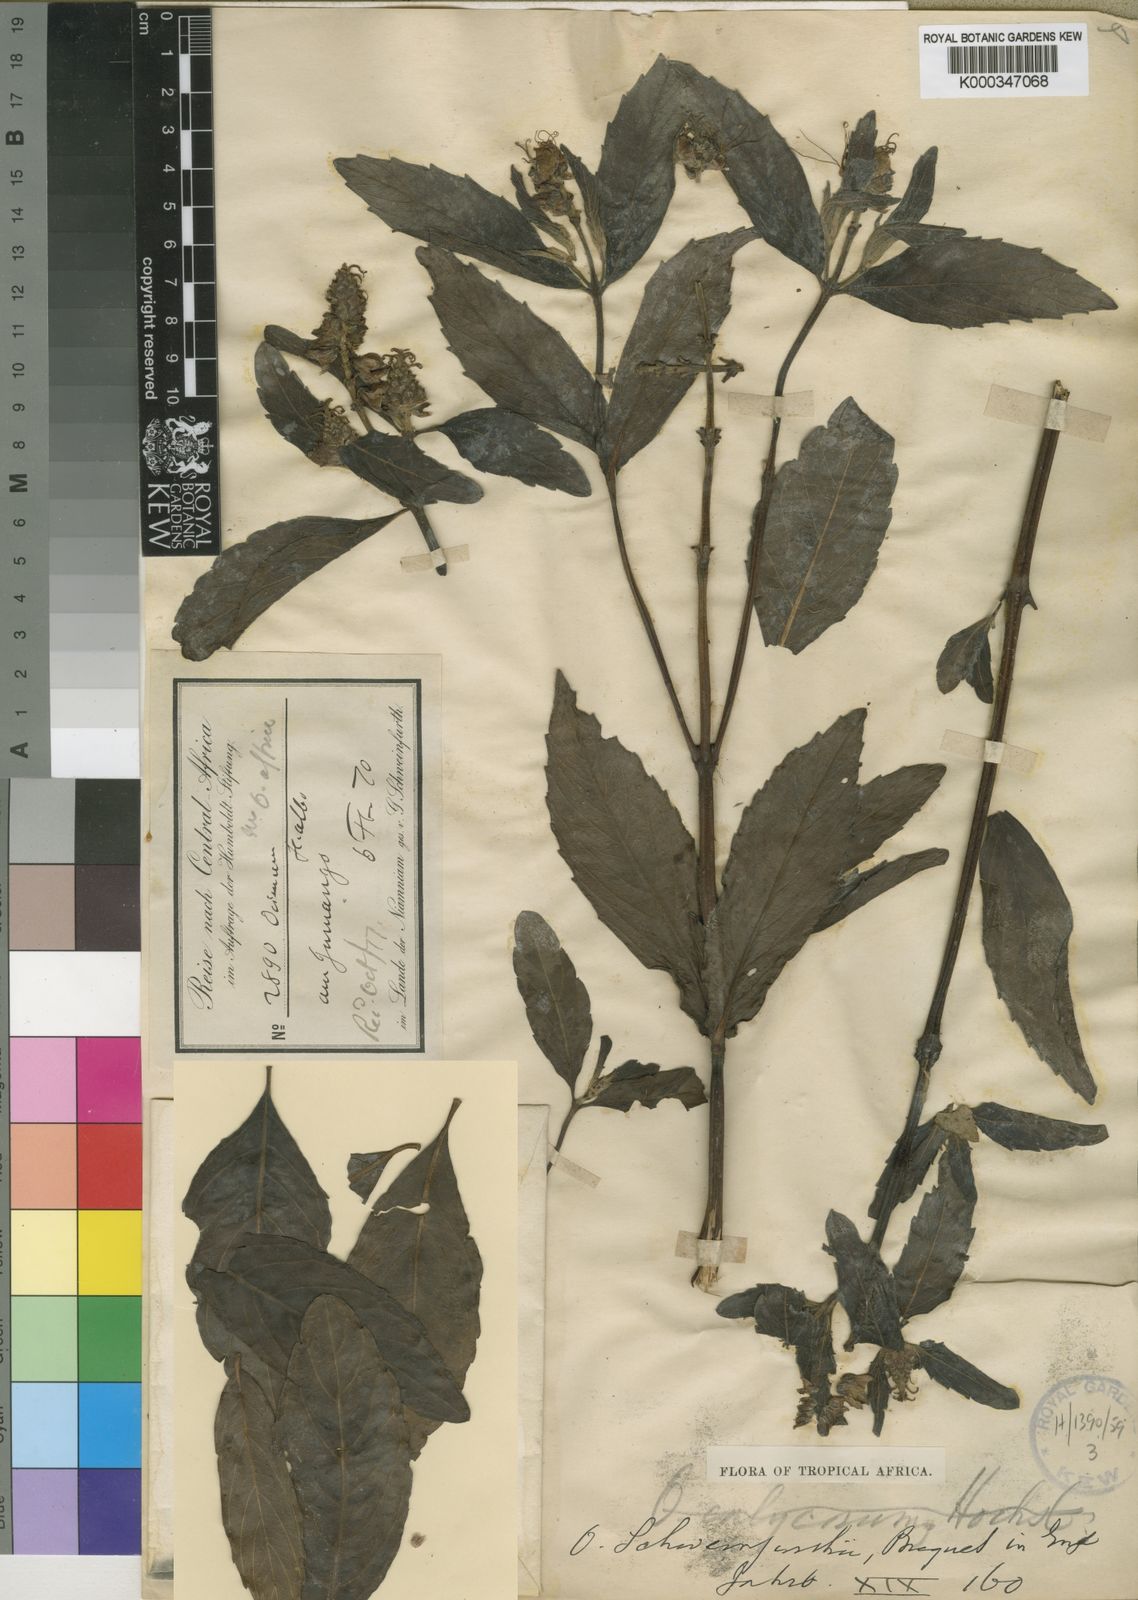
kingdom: Plantae
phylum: Tracheophyta
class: Magnoliopsida
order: Lamiales
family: Lamiaceae
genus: Ocimum
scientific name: Ocimum obovatum
